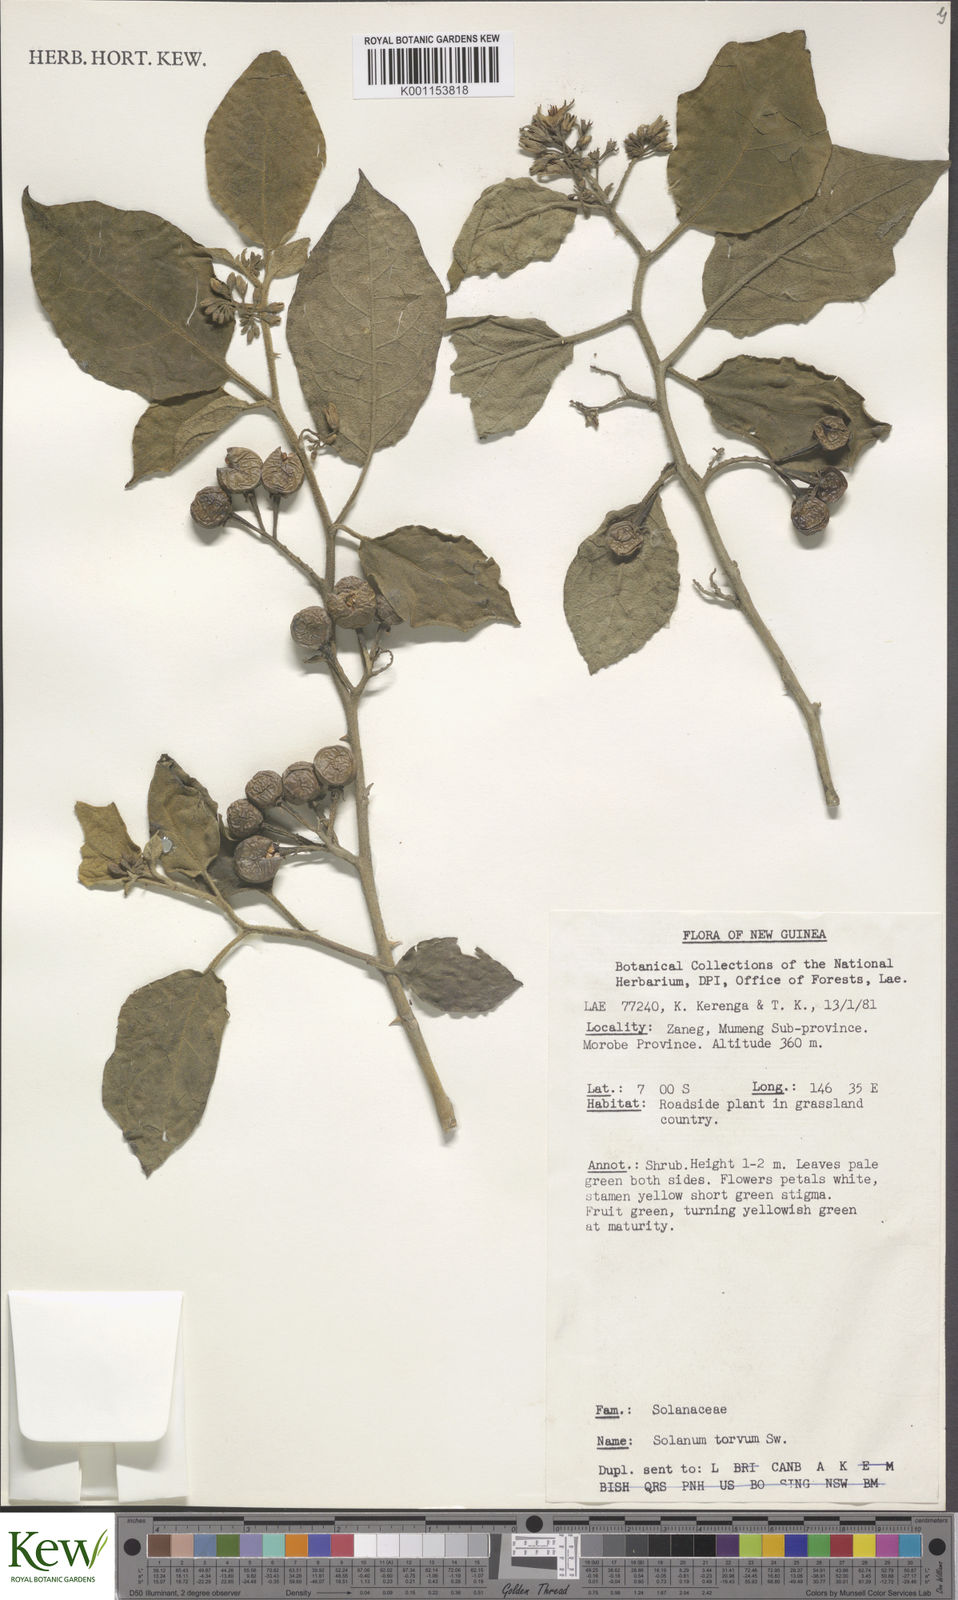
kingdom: Plantae
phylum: Tracheophyta
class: Magnoliopsida
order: Solanales
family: Solanaceae
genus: Solanum
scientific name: Solanum torvum
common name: Turkey berry
